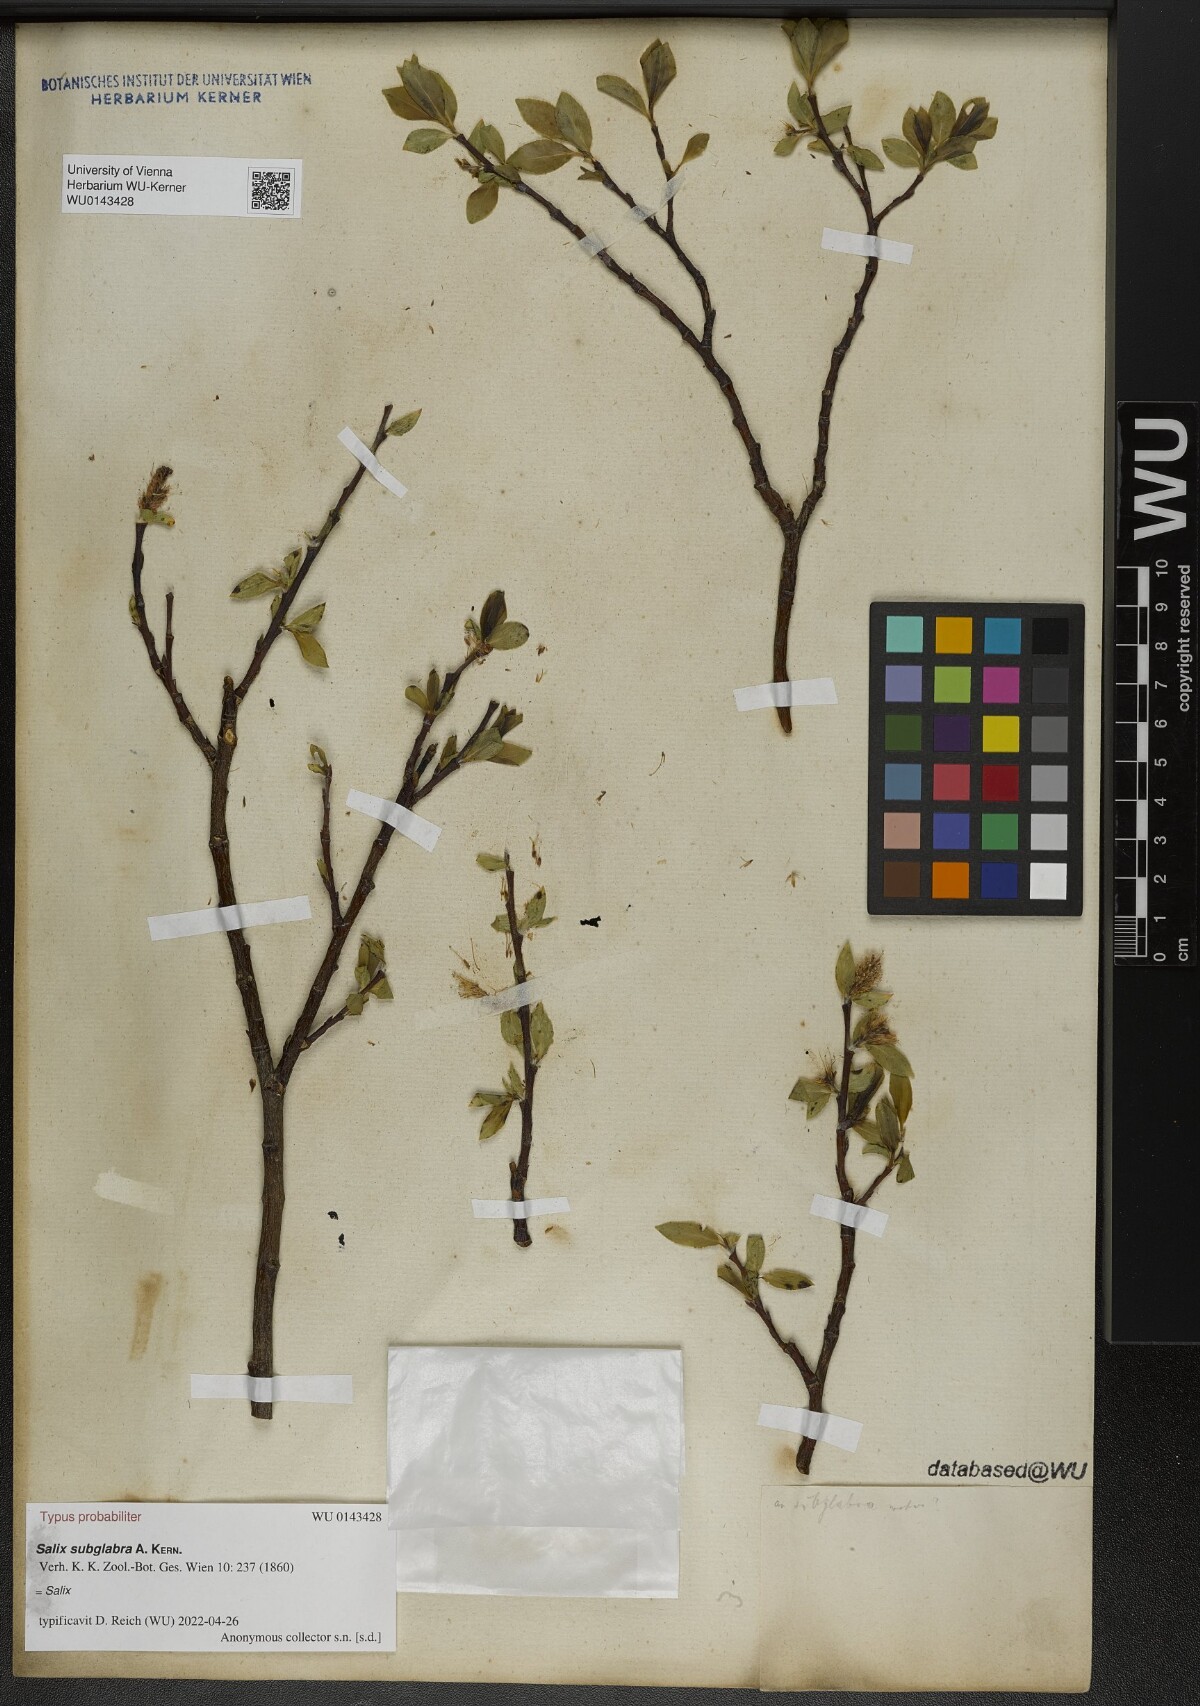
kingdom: Plantae
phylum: Tracheophyta
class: Magnoliopsida
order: Malpighiales
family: Salicaceae
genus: Salix
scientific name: Salix subglabra
